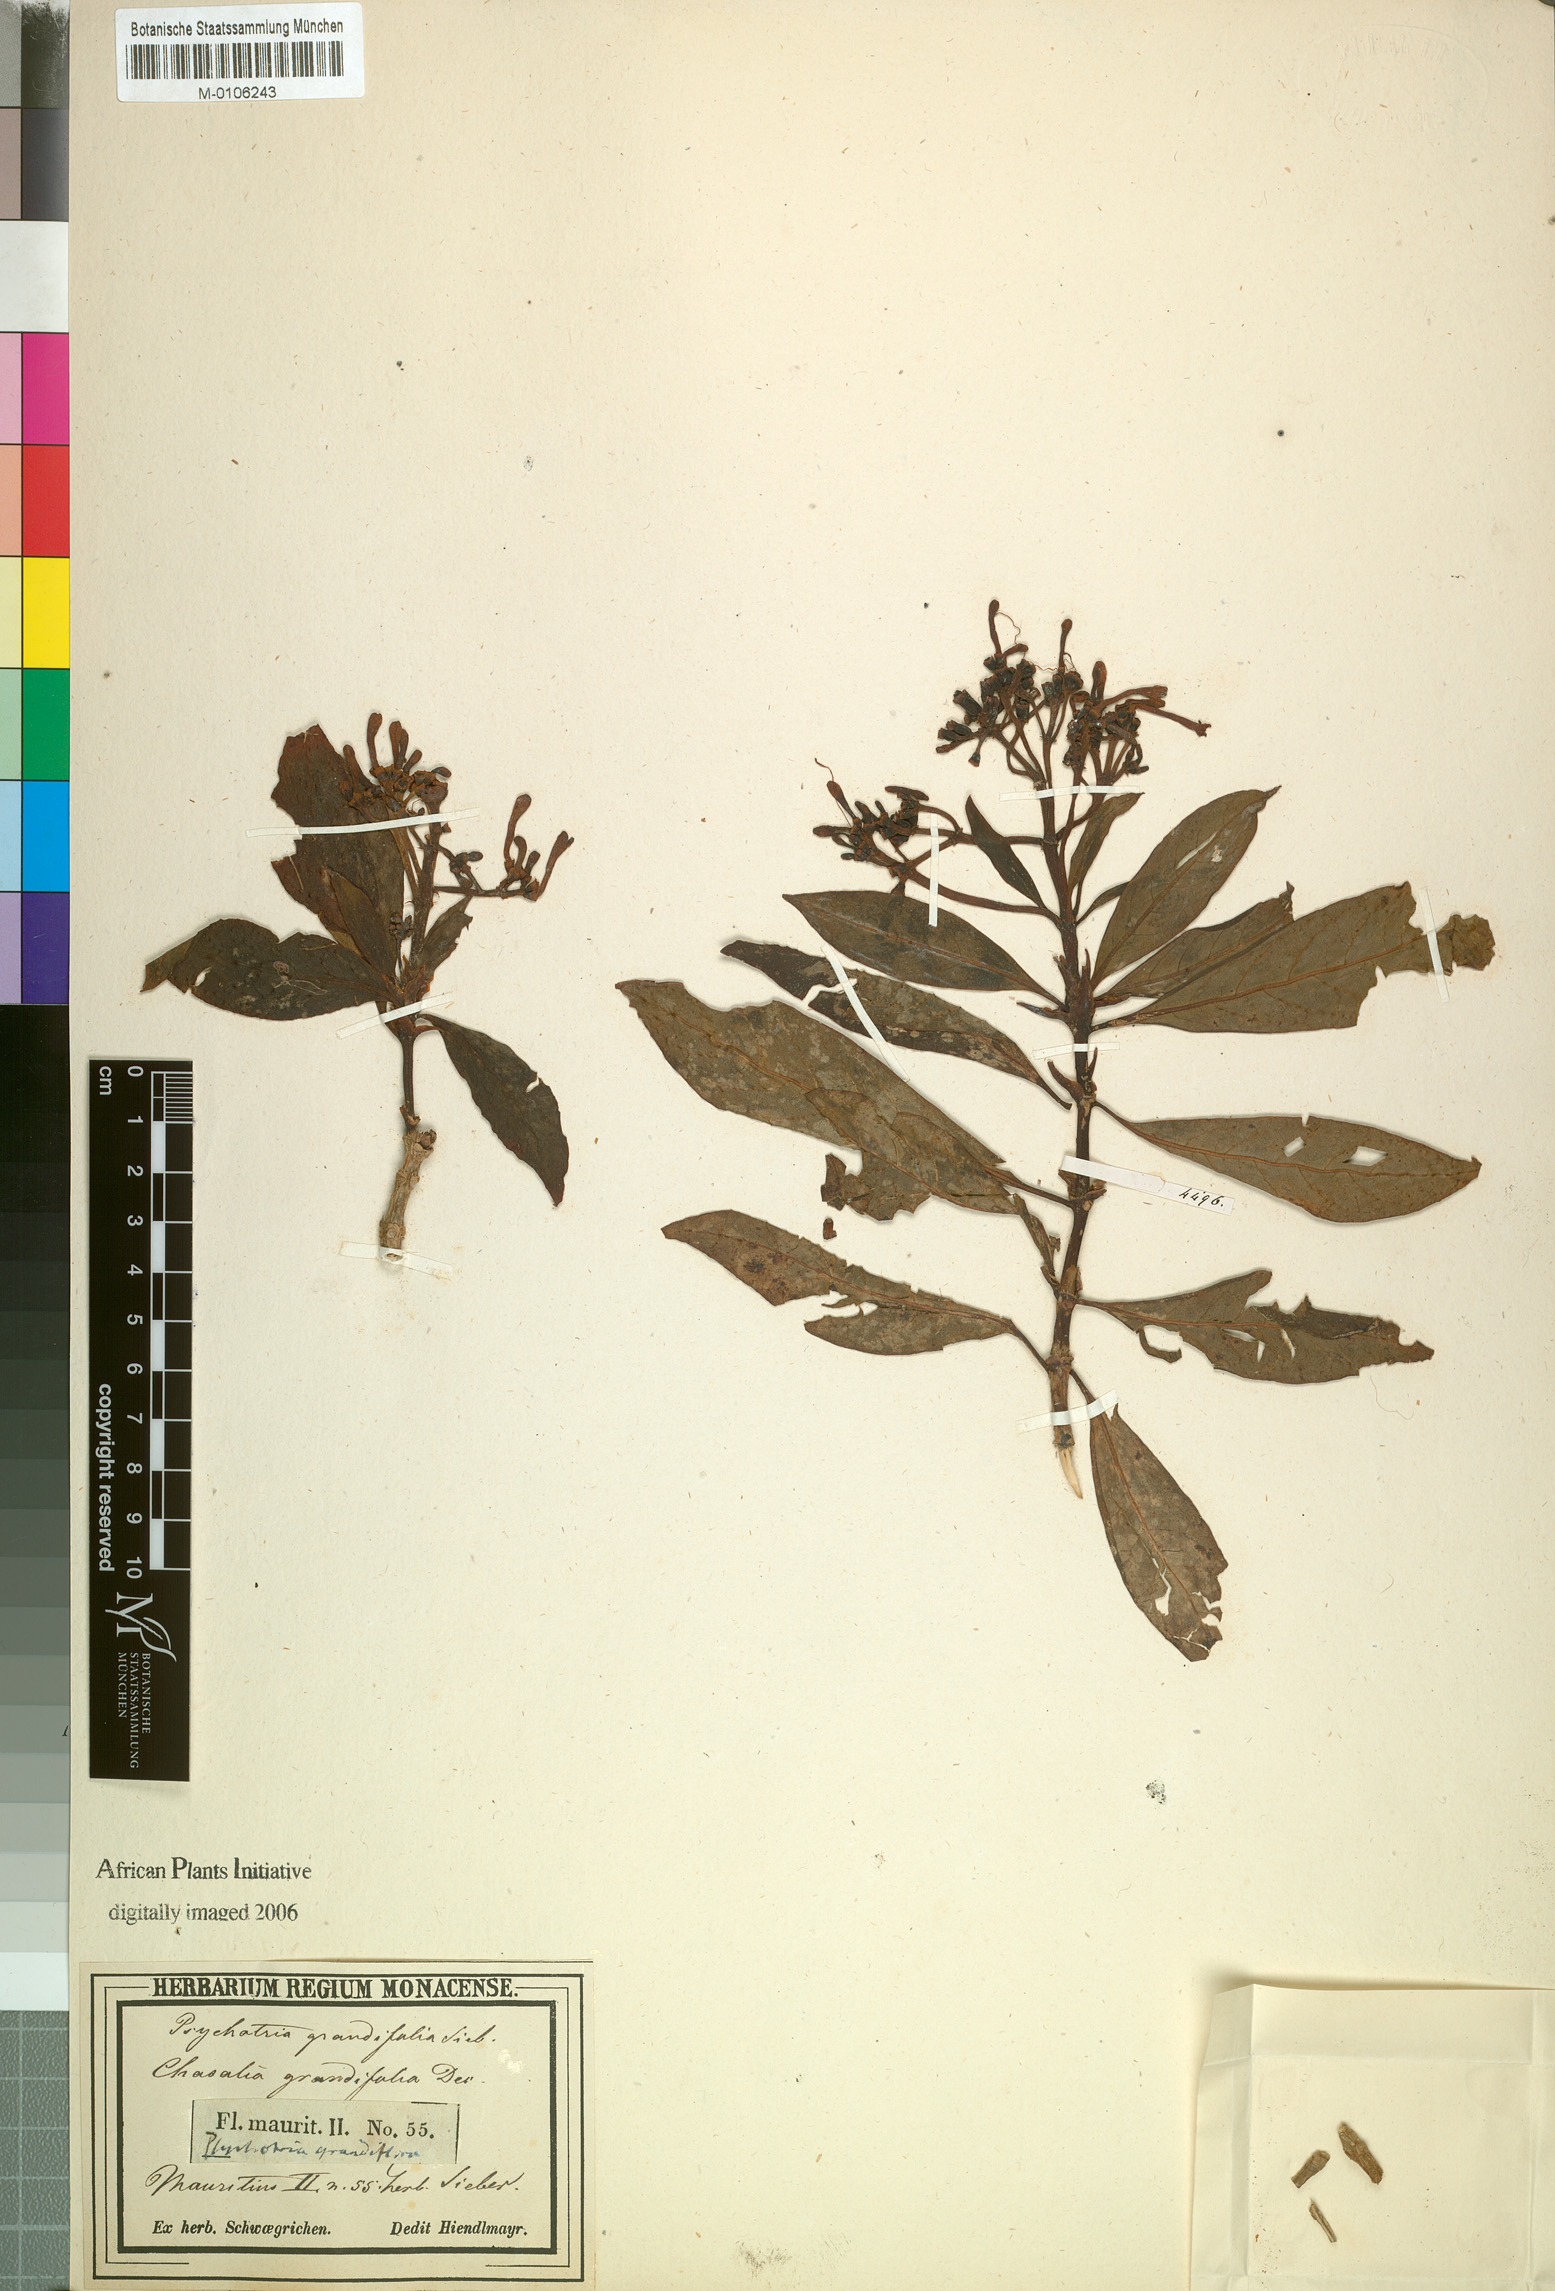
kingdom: Plantae
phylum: Tracheophyta
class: Magnoliopsida
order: Gentianales
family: Rubiaceae
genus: Chassalia
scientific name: Chassalia grandifolia
